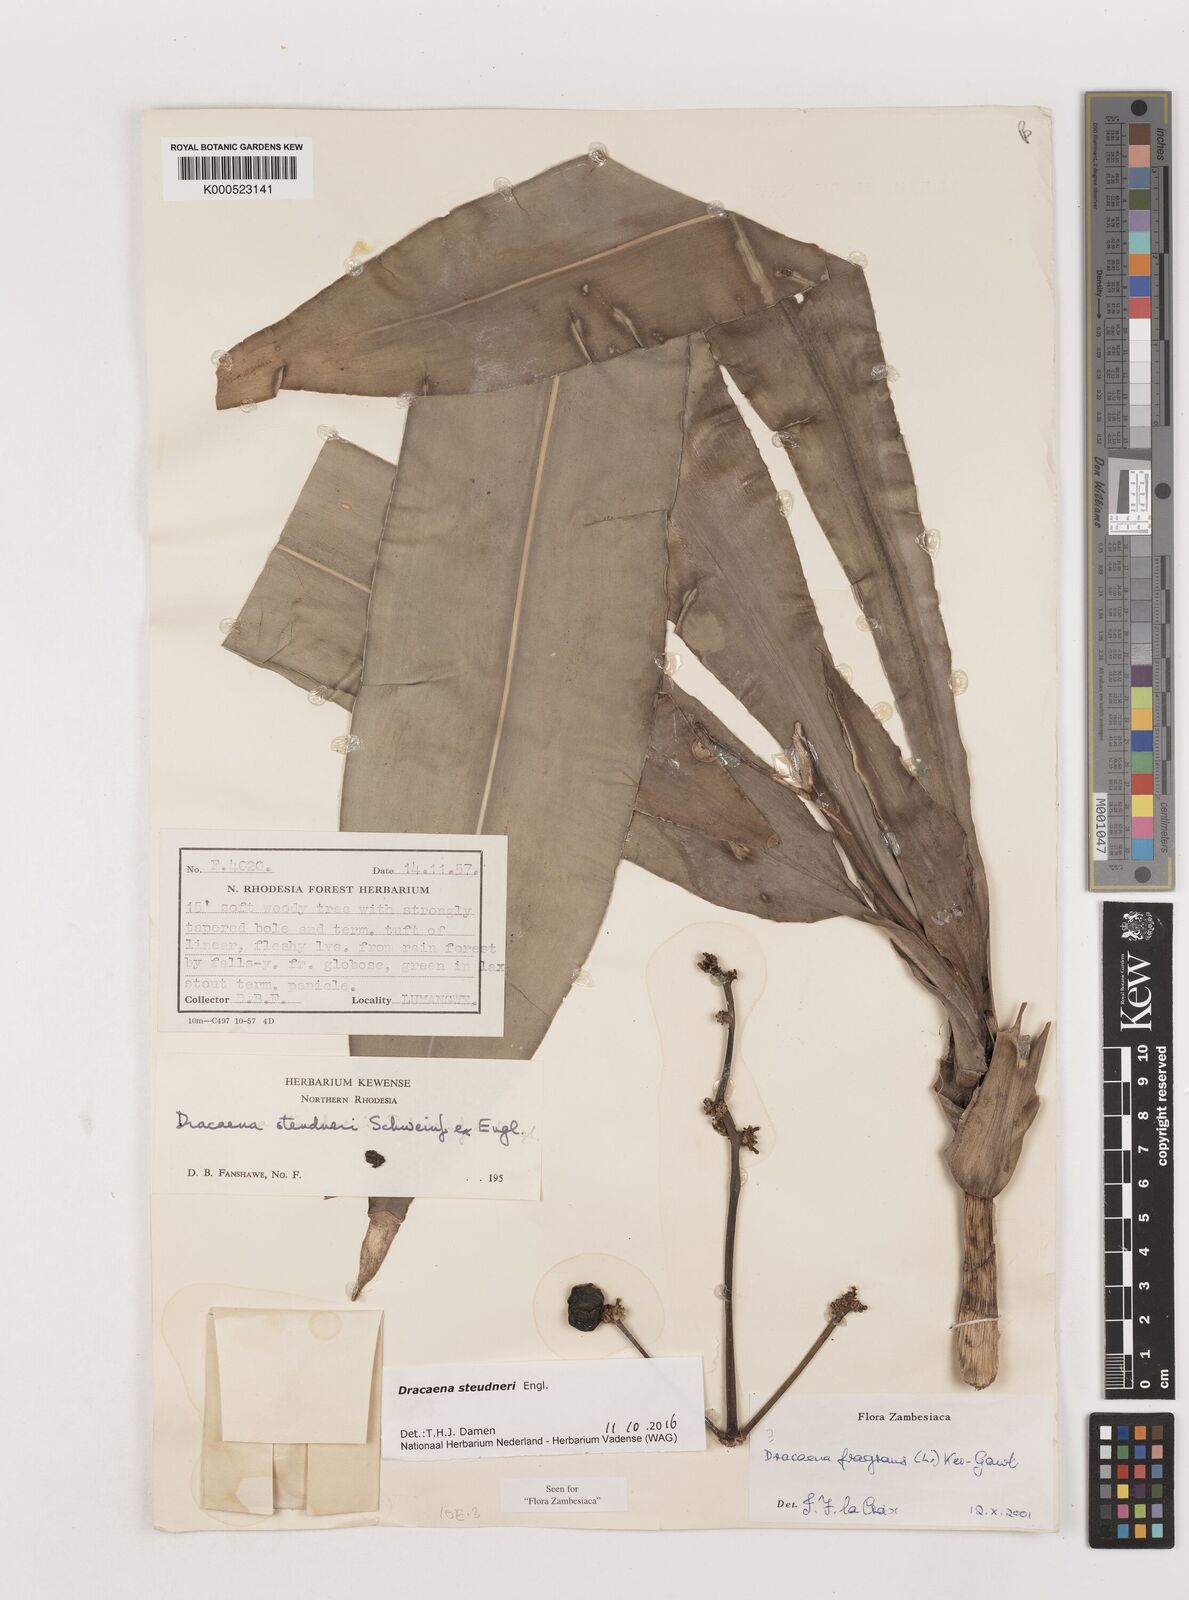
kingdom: Plantae
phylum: Tracheophyta
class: Liliopsida
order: Asparagales
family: Asparagaceae
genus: Dracaena
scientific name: Dracaena steudneri
